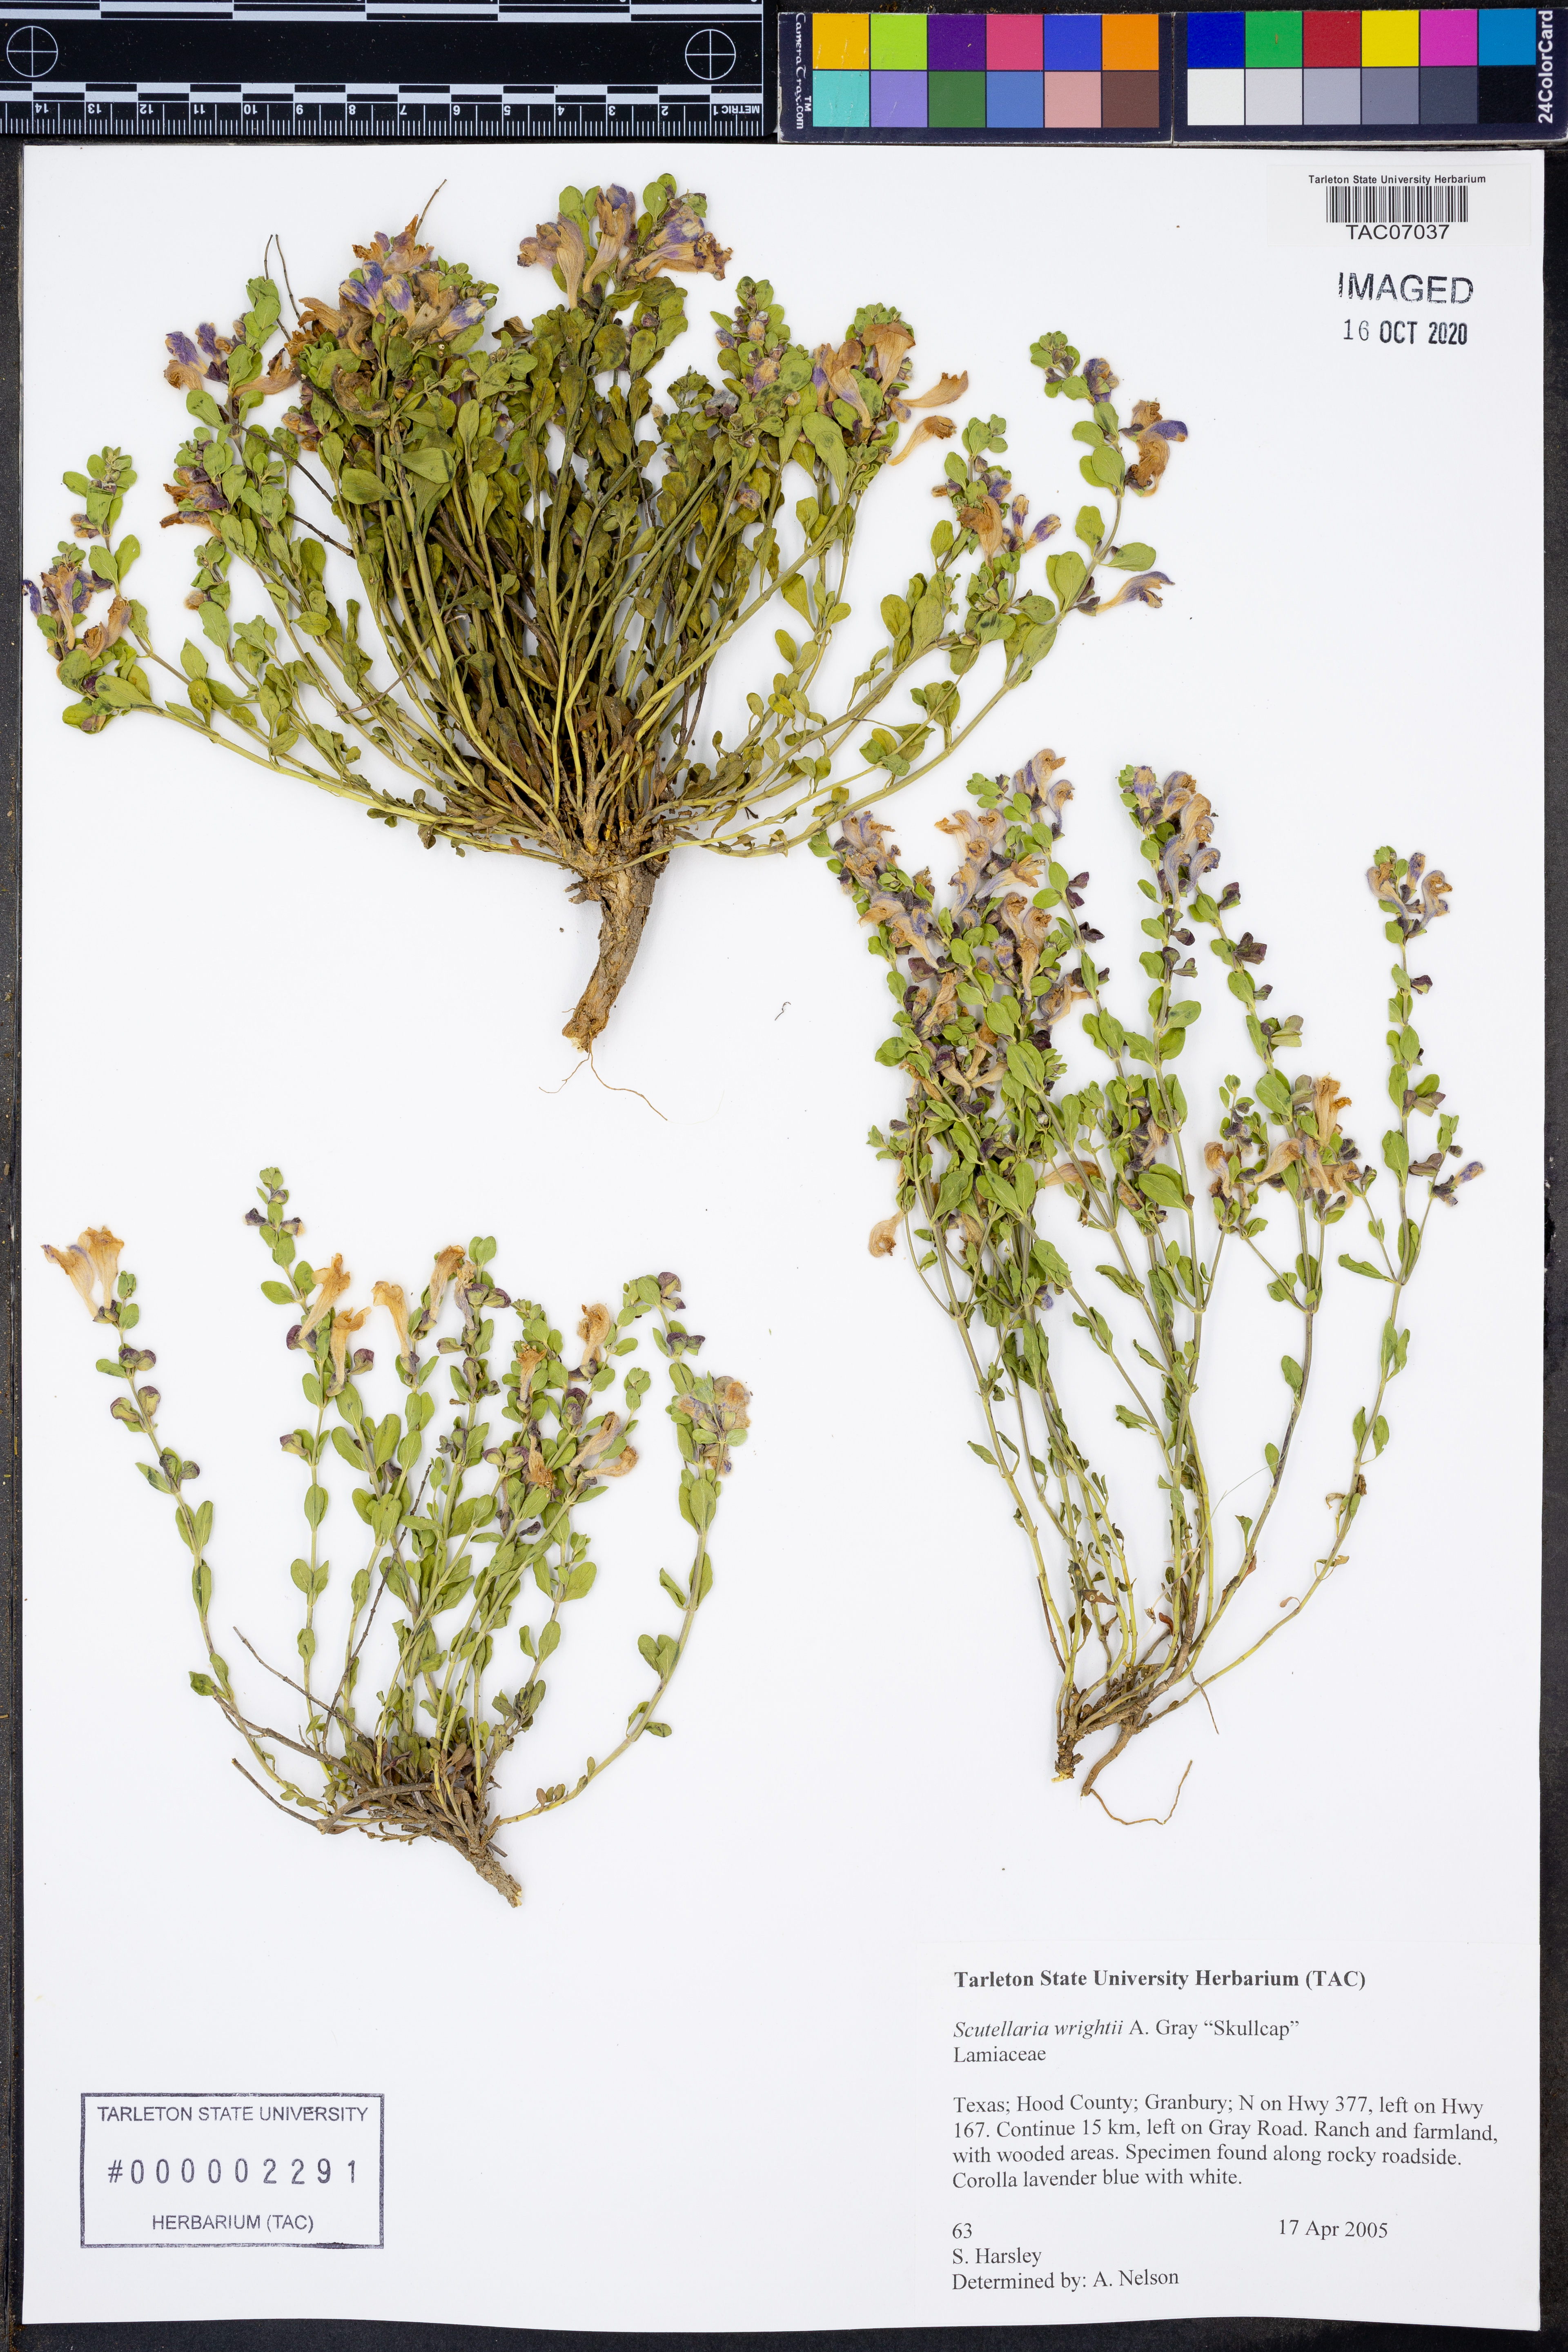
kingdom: Plantae
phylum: Tracheophyta
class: Magnoliopsida
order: Lamiales
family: Lamiaceae
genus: Scutellaria
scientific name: Scutellaria wrightii
